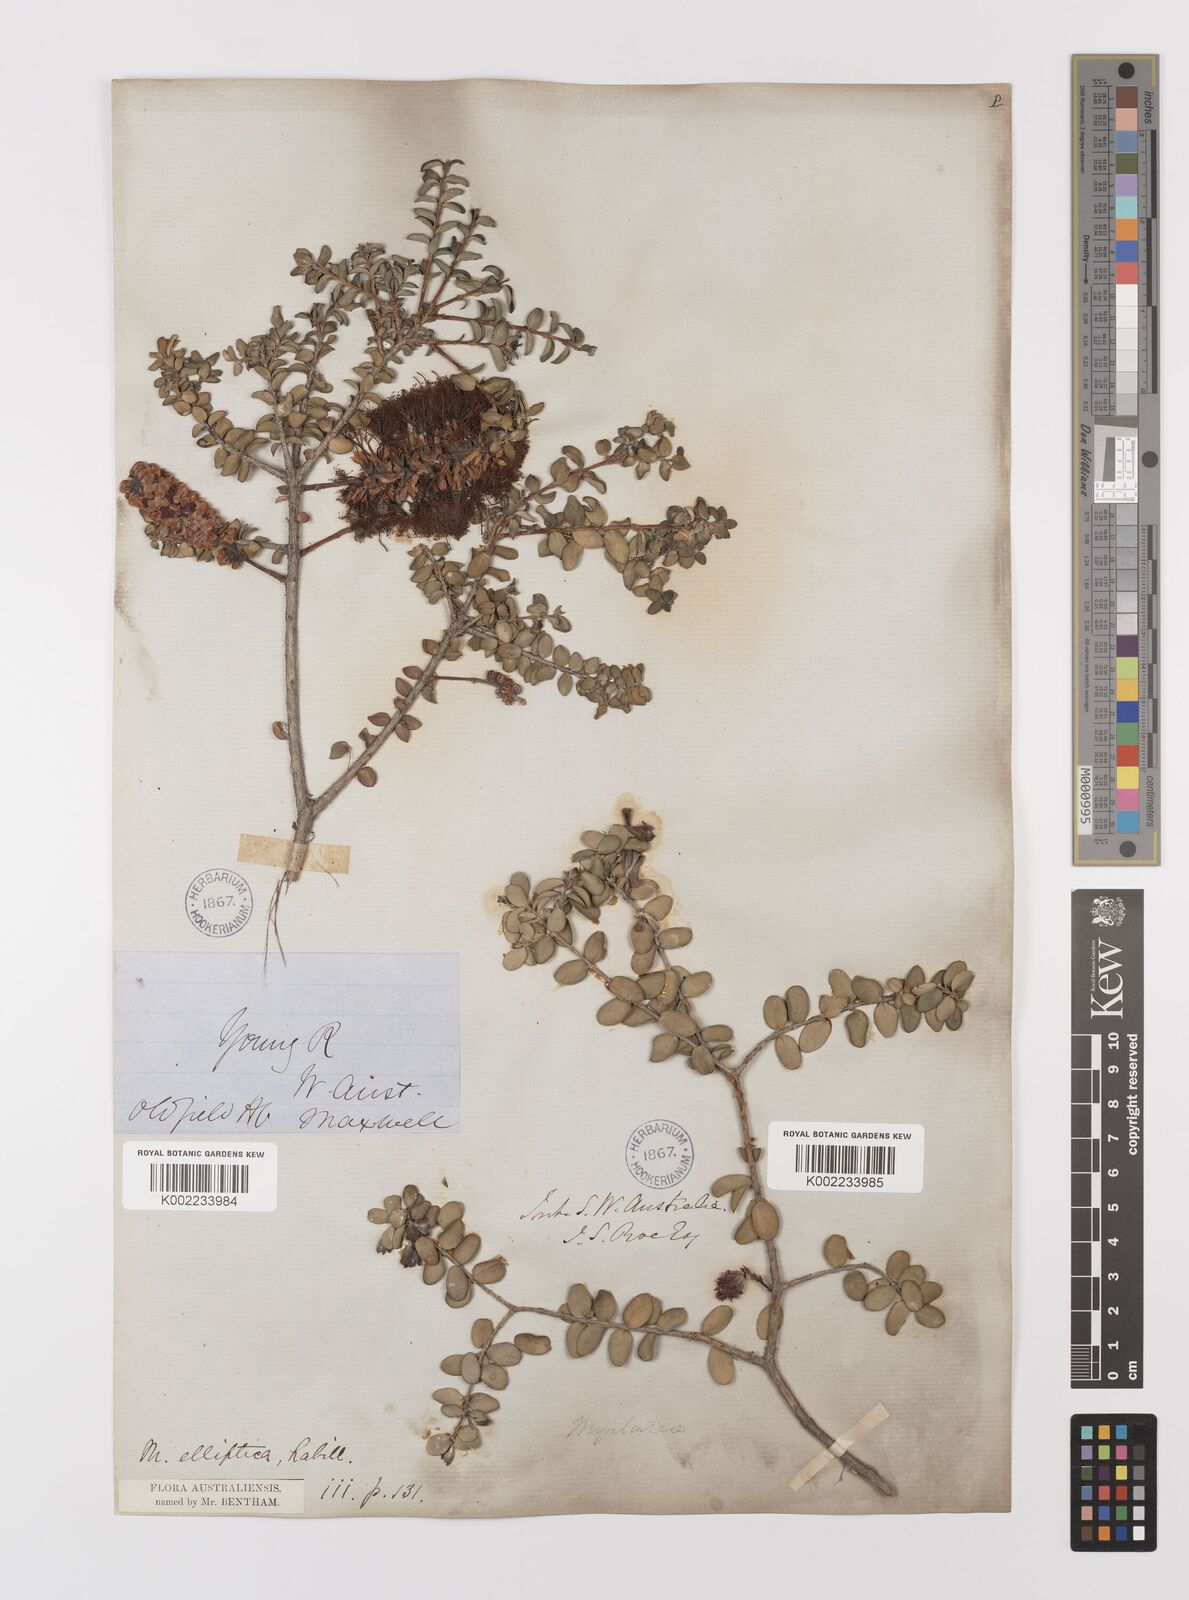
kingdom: Plantae
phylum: Tracheophyta
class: Magnoliopsida
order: Myrtales
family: Myrtaceae
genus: Melaleuca
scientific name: Melaleuca elliptica
